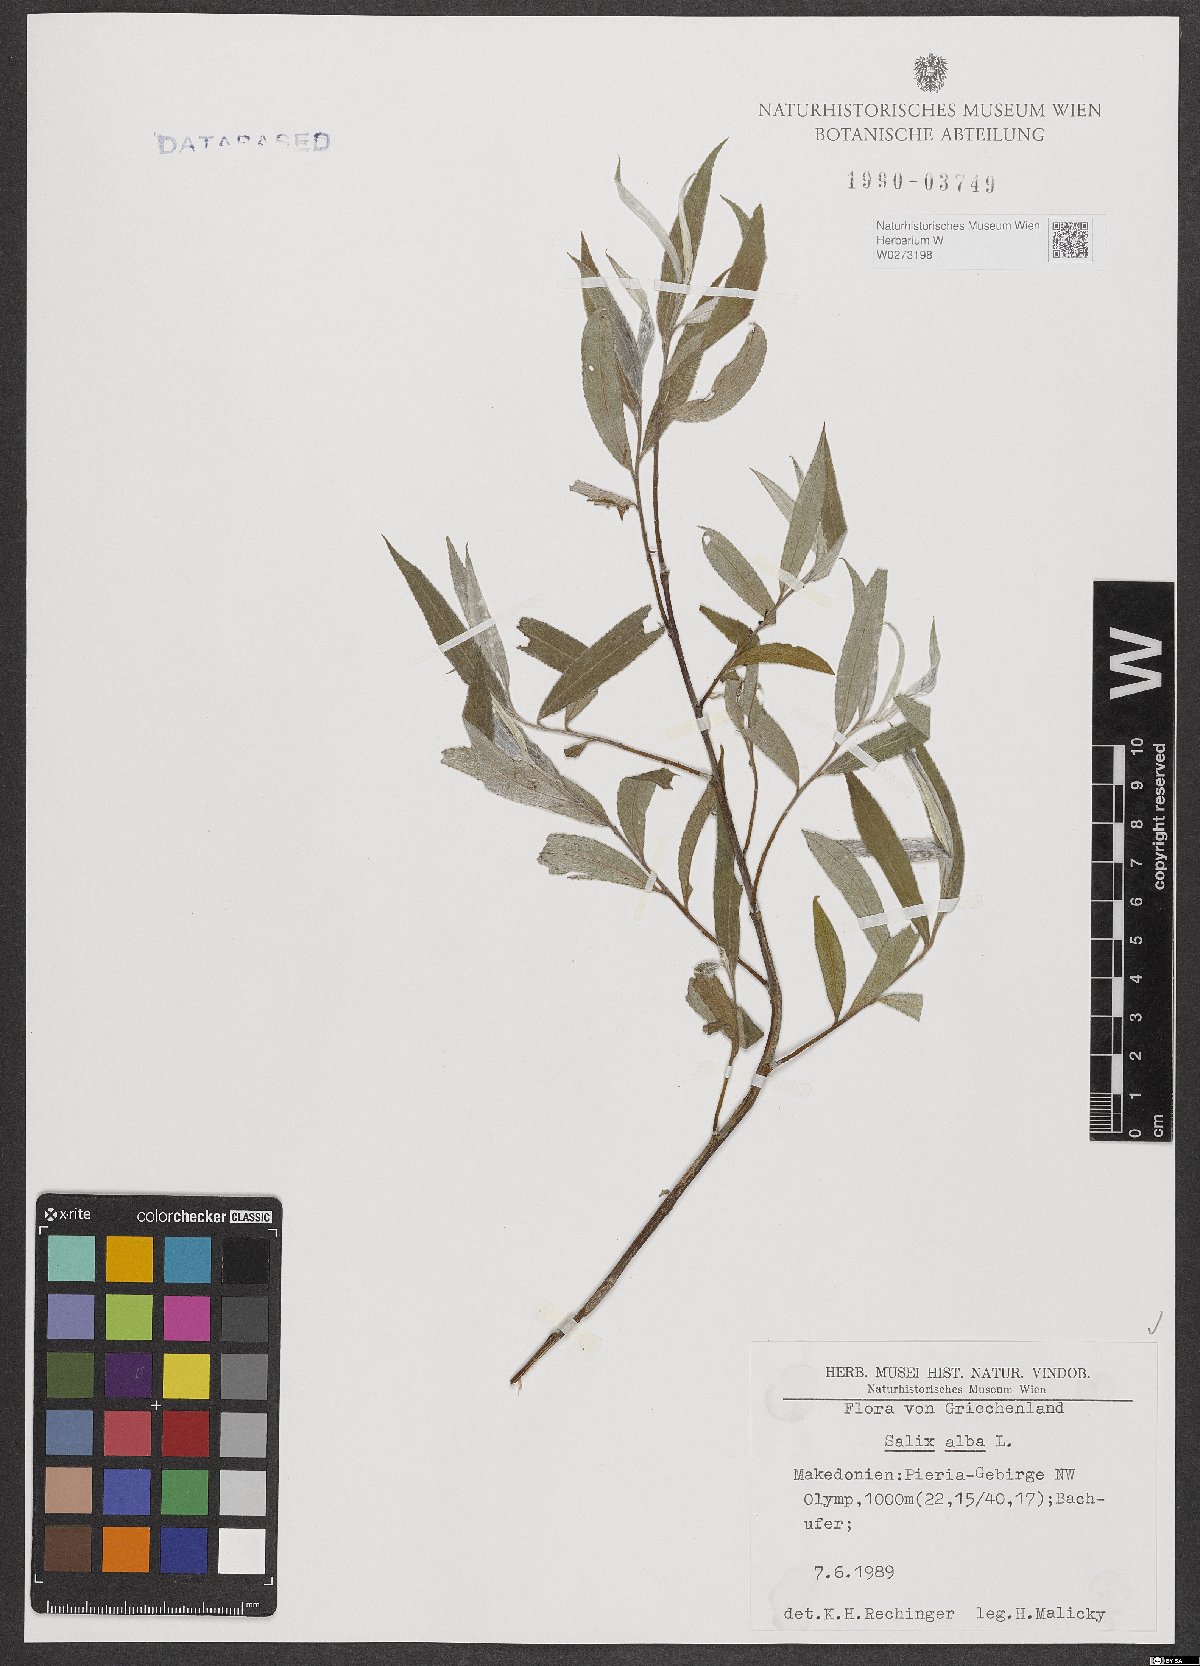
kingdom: Plantae
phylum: Tracheophyta
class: Magnoliopsida
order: Malpighiales
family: Salicaceae
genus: Salix
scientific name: Salix alba
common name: White willow
